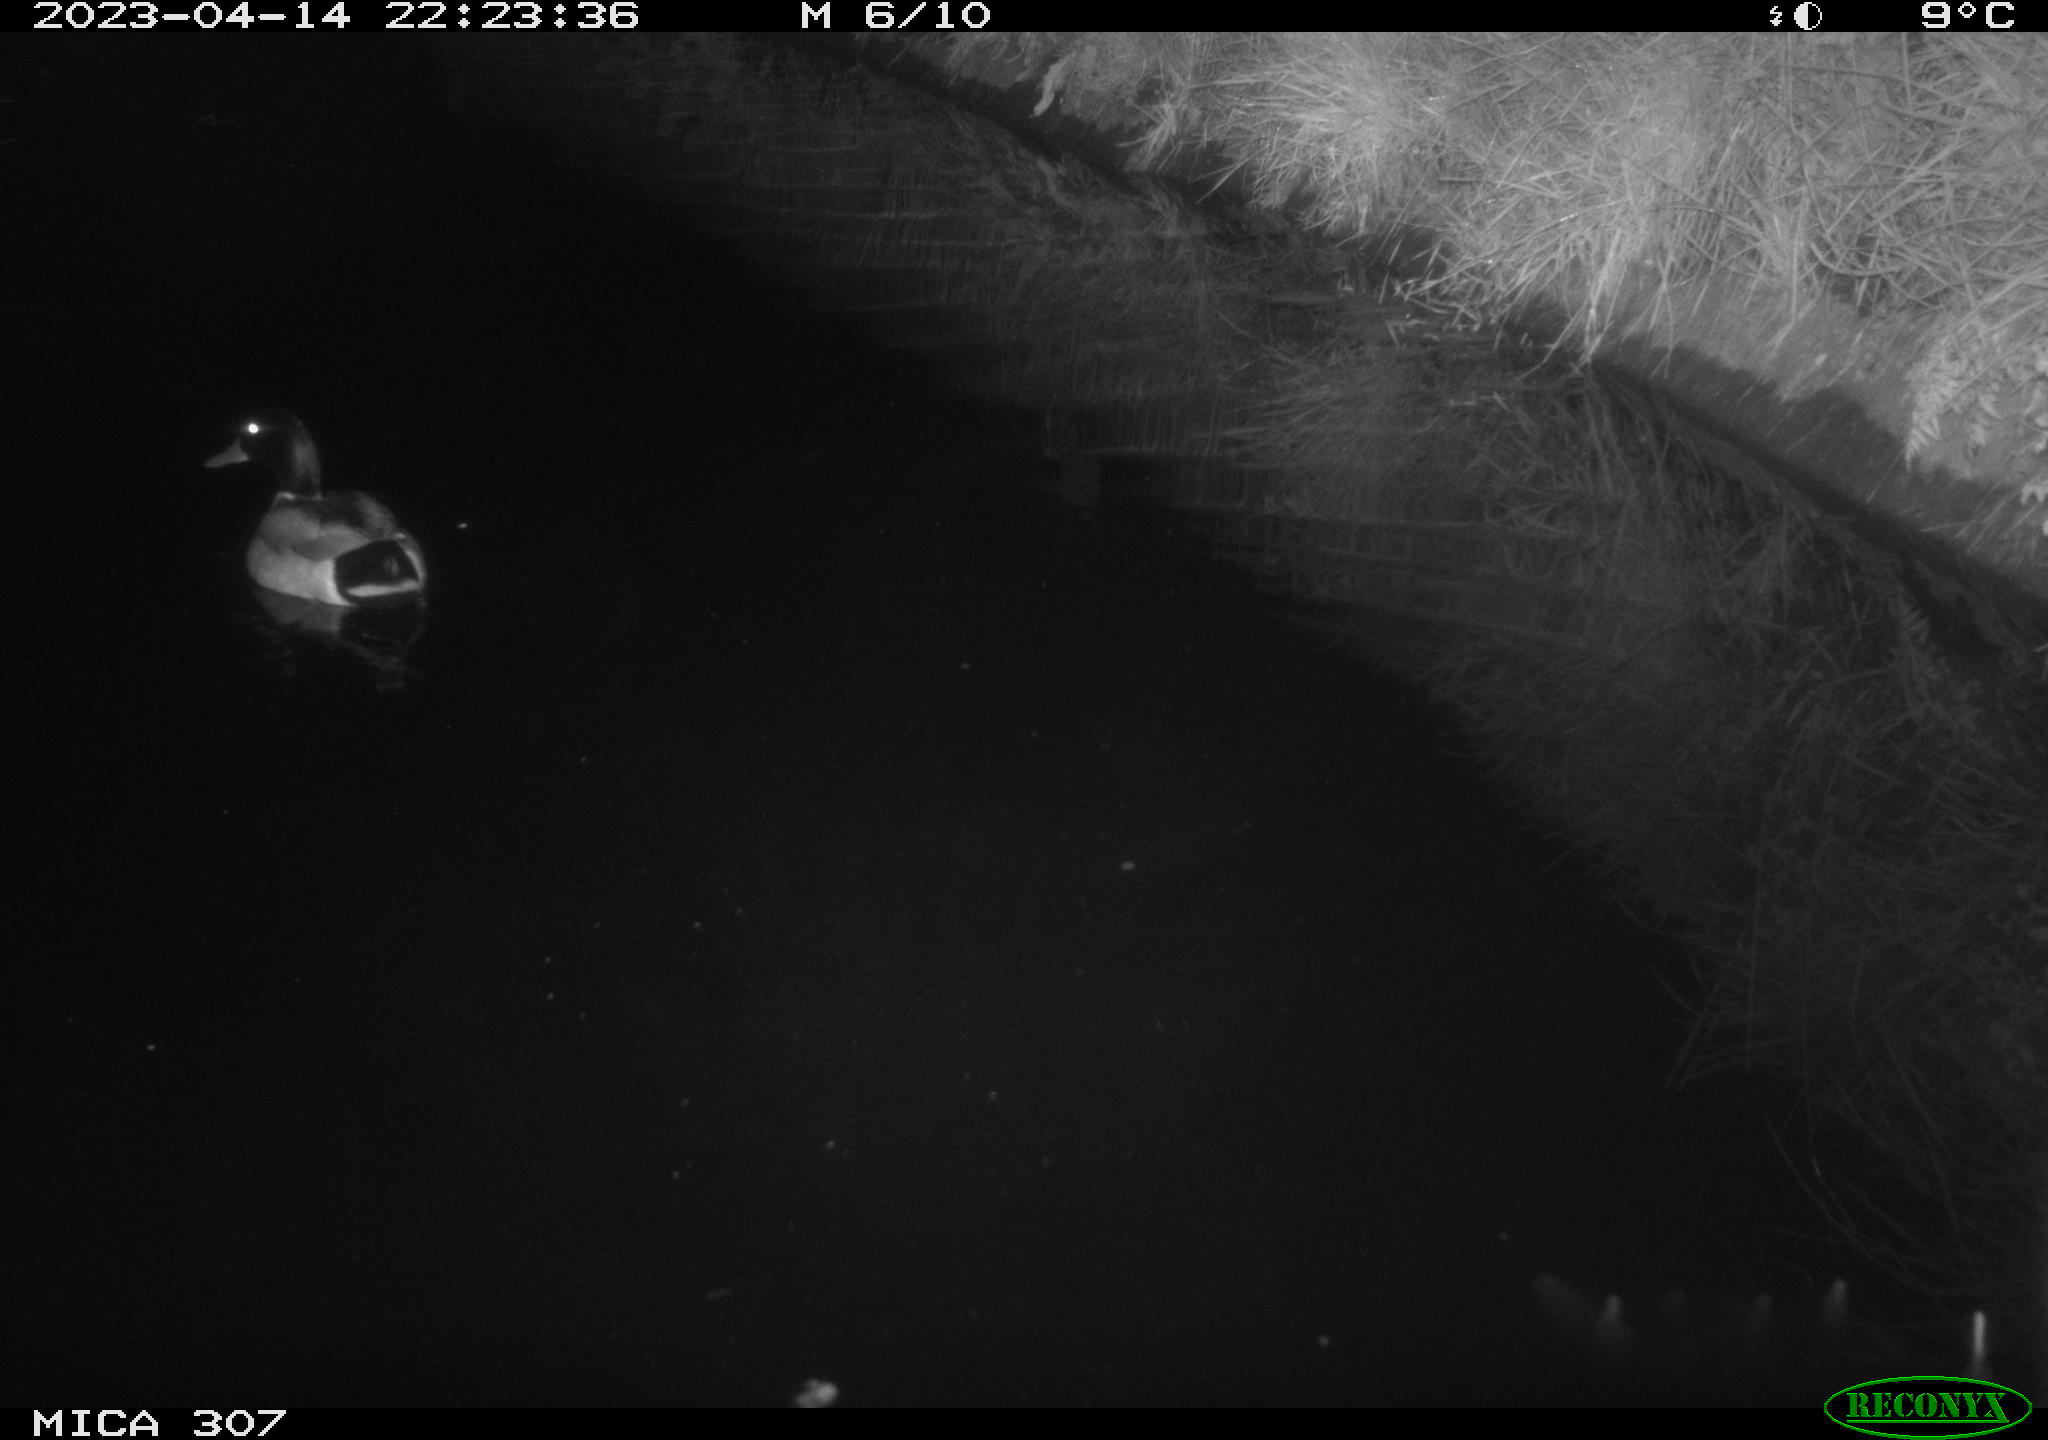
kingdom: Animalia
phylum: Chordata
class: Aves
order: Anseriformes
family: Anatidae
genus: Anas
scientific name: Anas
